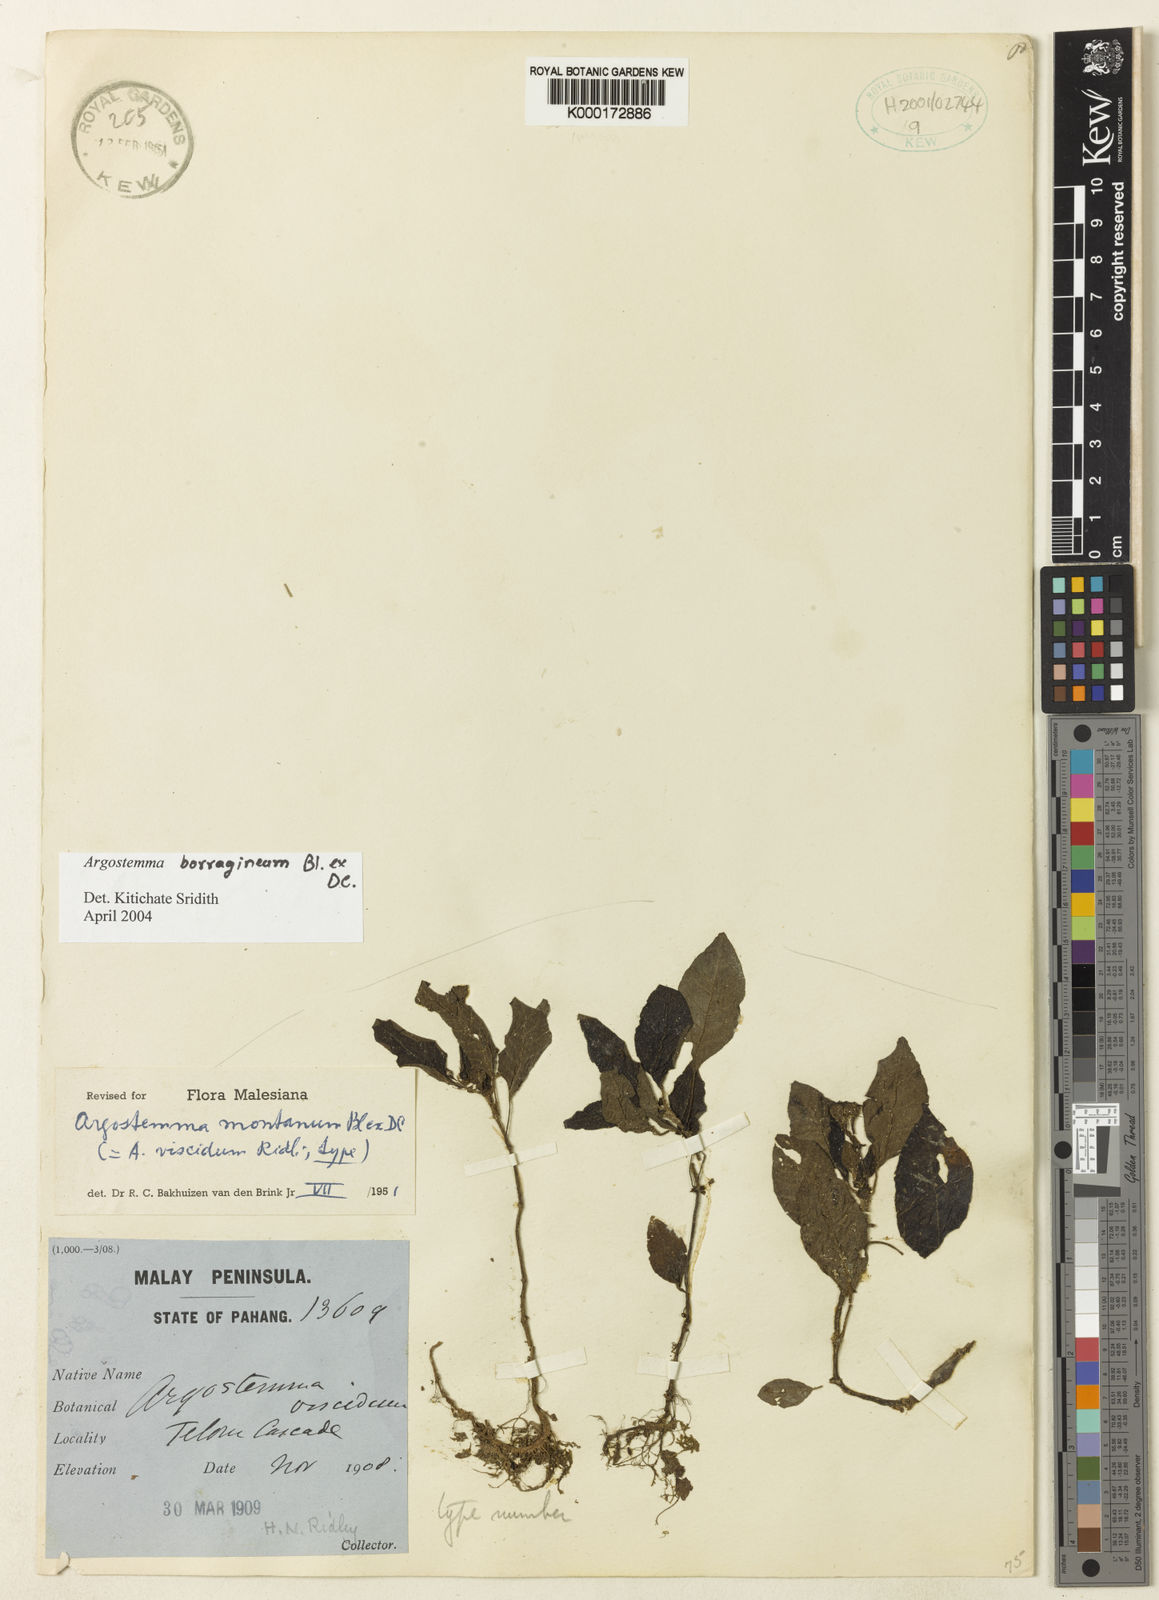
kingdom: Plantae
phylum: Tracheophyta
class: Magnoliopsida
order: Gentianales
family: Rubiaceae
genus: Argostemma
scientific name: Argostemma
